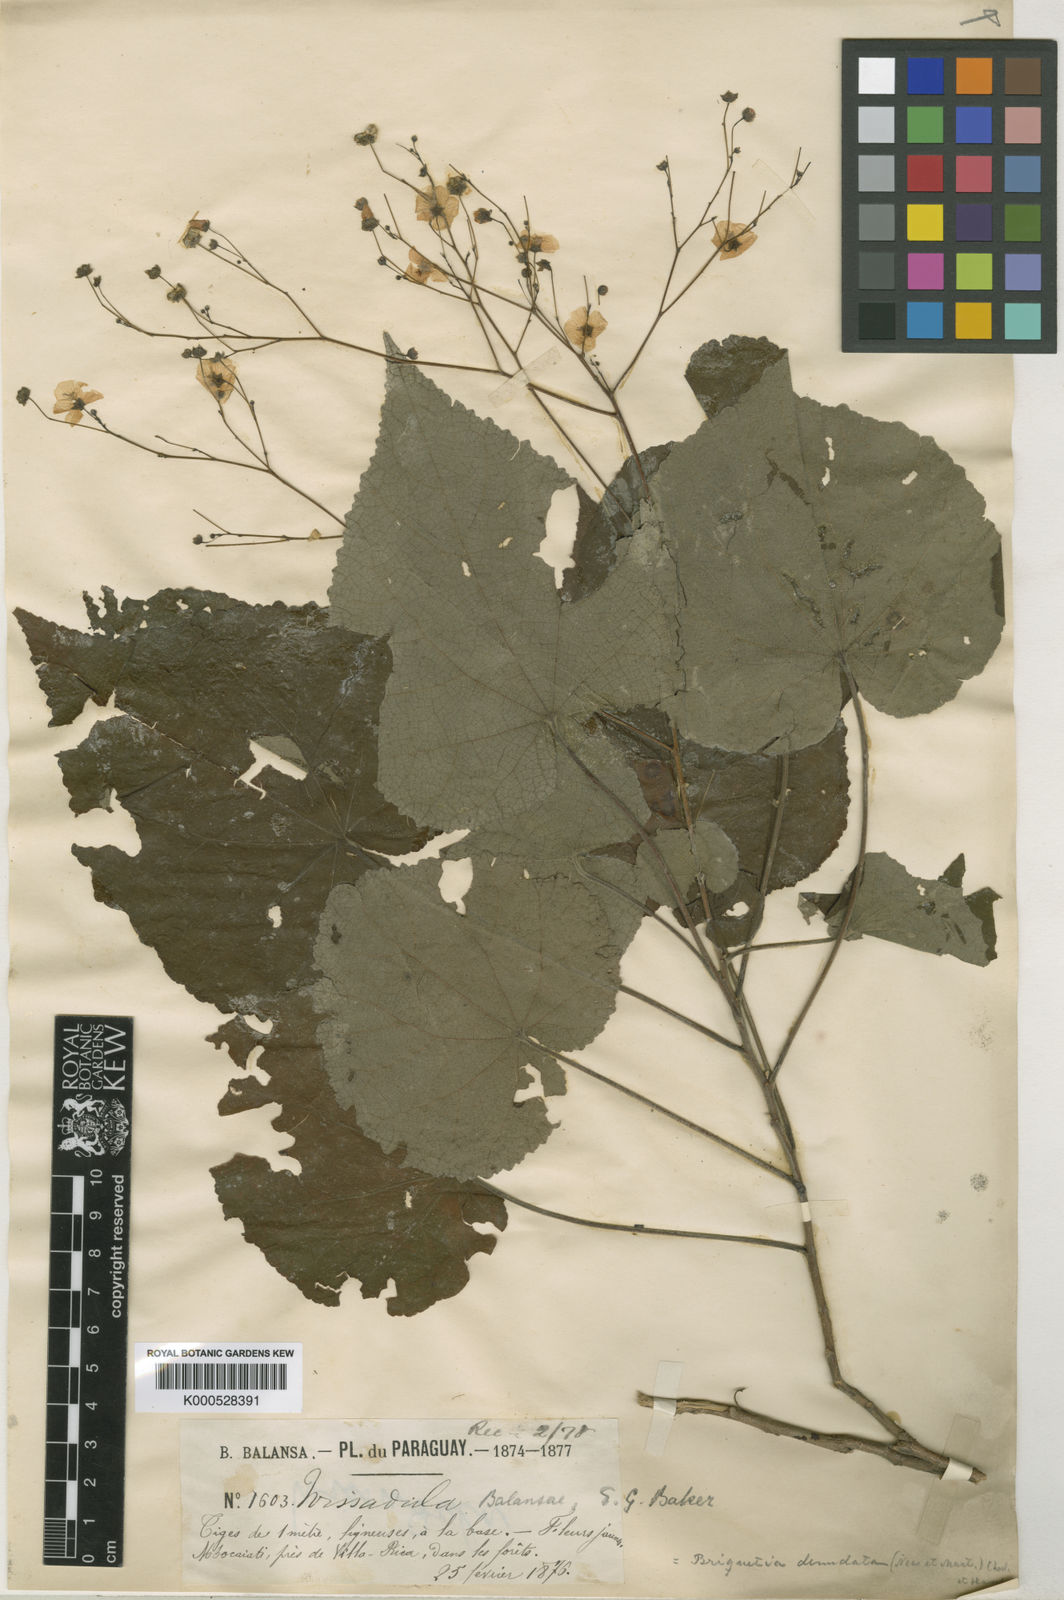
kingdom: Plantae
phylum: Tracheophyta
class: Magnoliopsida
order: Malvales
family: Malvaceae
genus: Briquetia
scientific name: Briquetia
